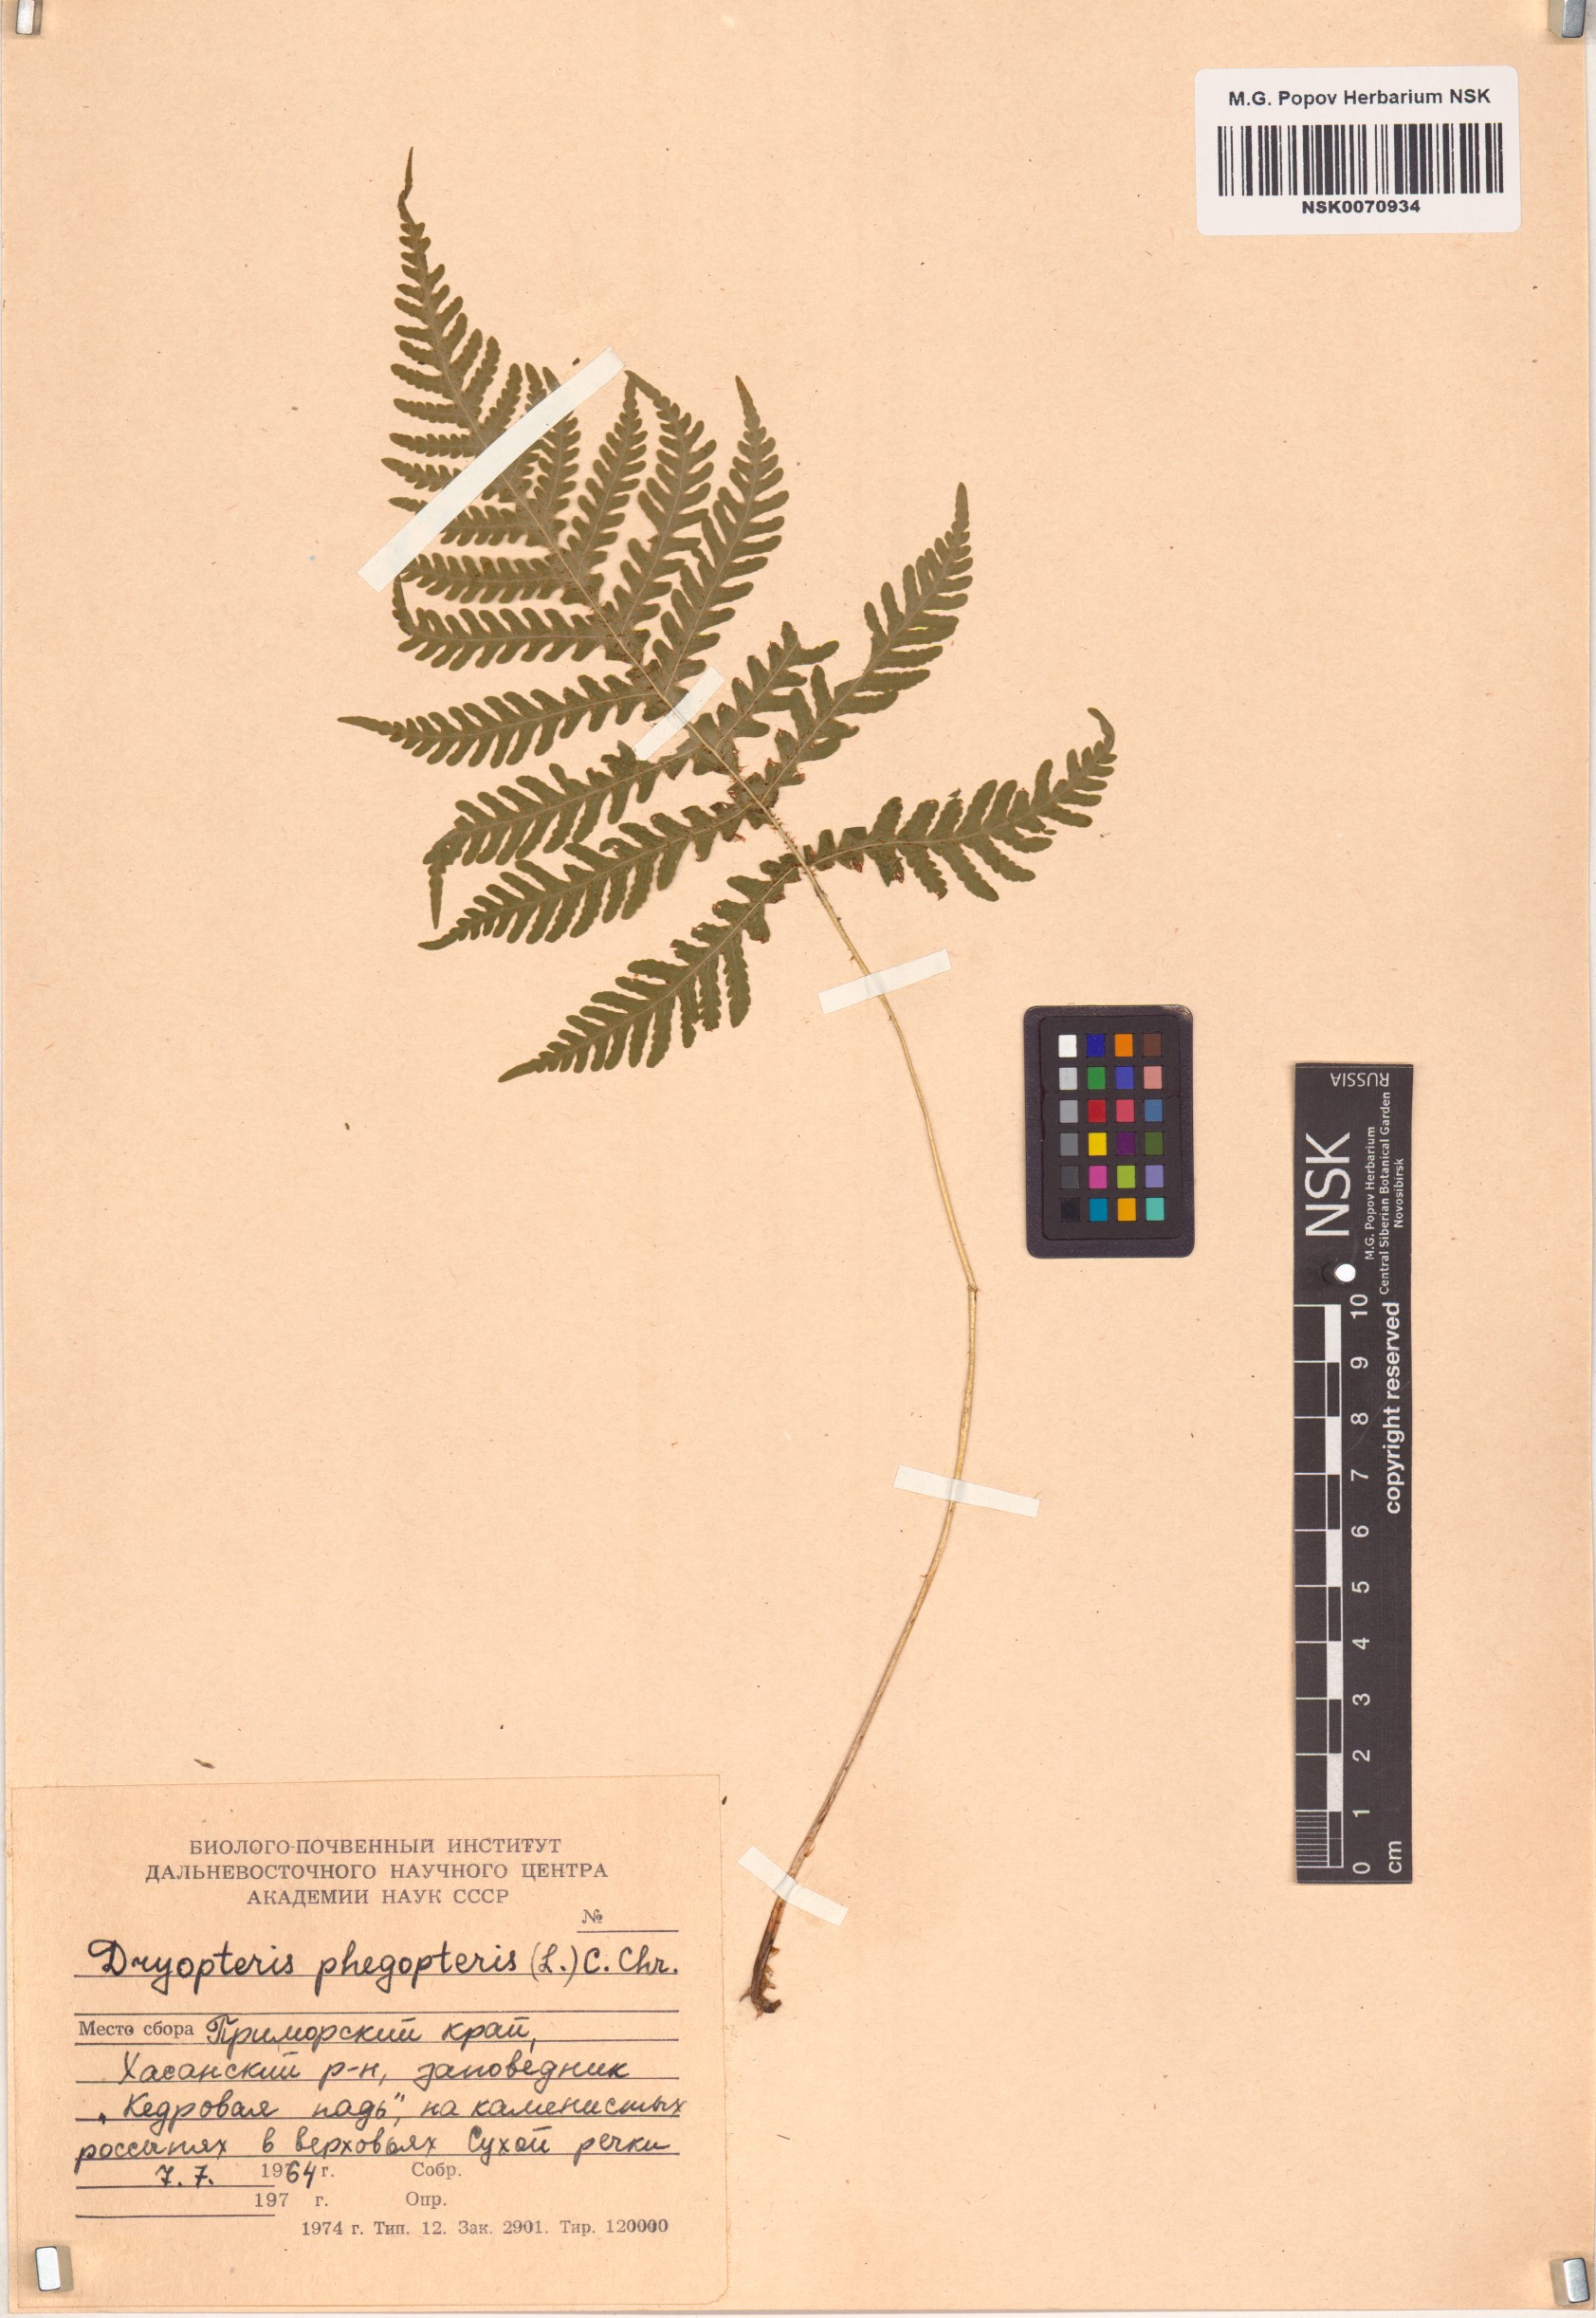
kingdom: Plantae
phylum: Tracheophyta
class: Polypodiopsida
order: Polypodiales
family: Thelypteridaceae
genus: Phegopteris
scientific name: Phegopteris connectilis
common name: Beech fern
